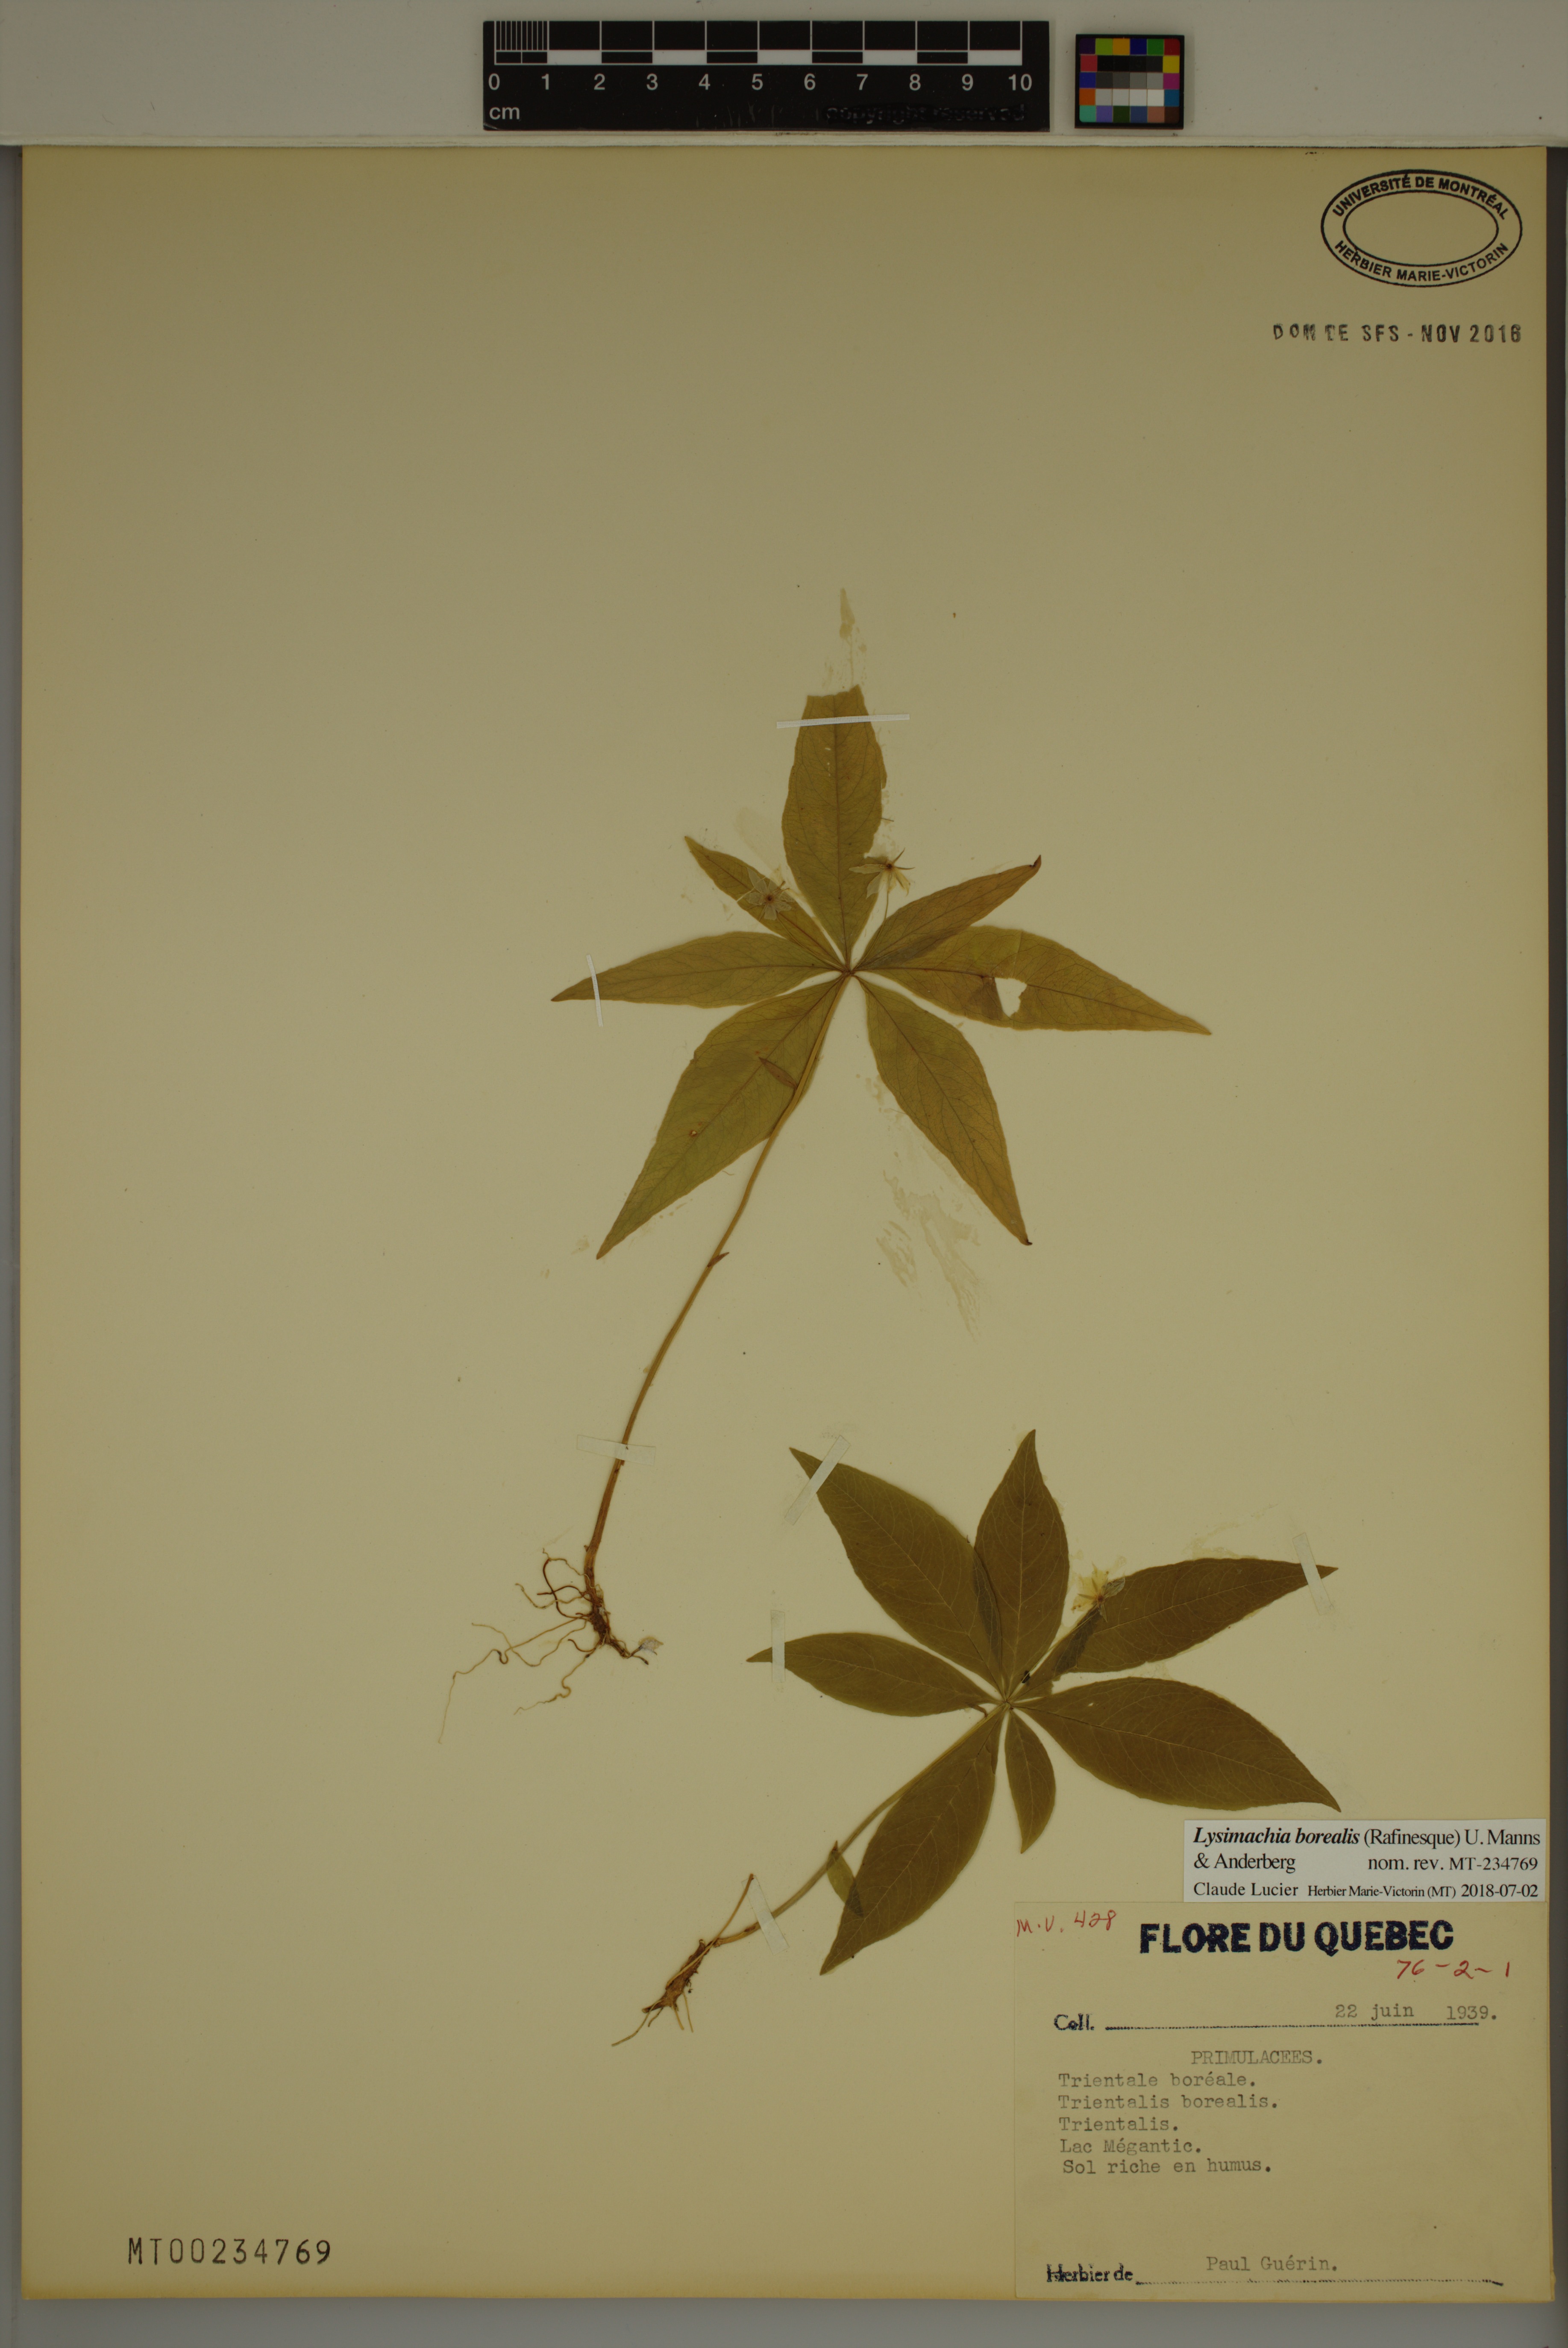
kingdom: Plantae
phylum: Tracheophyta
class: Magnoliopsida
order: Ericales
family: Primulaceae
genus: Lysimachia
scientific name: Lysimachia borealis
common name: American starflower
